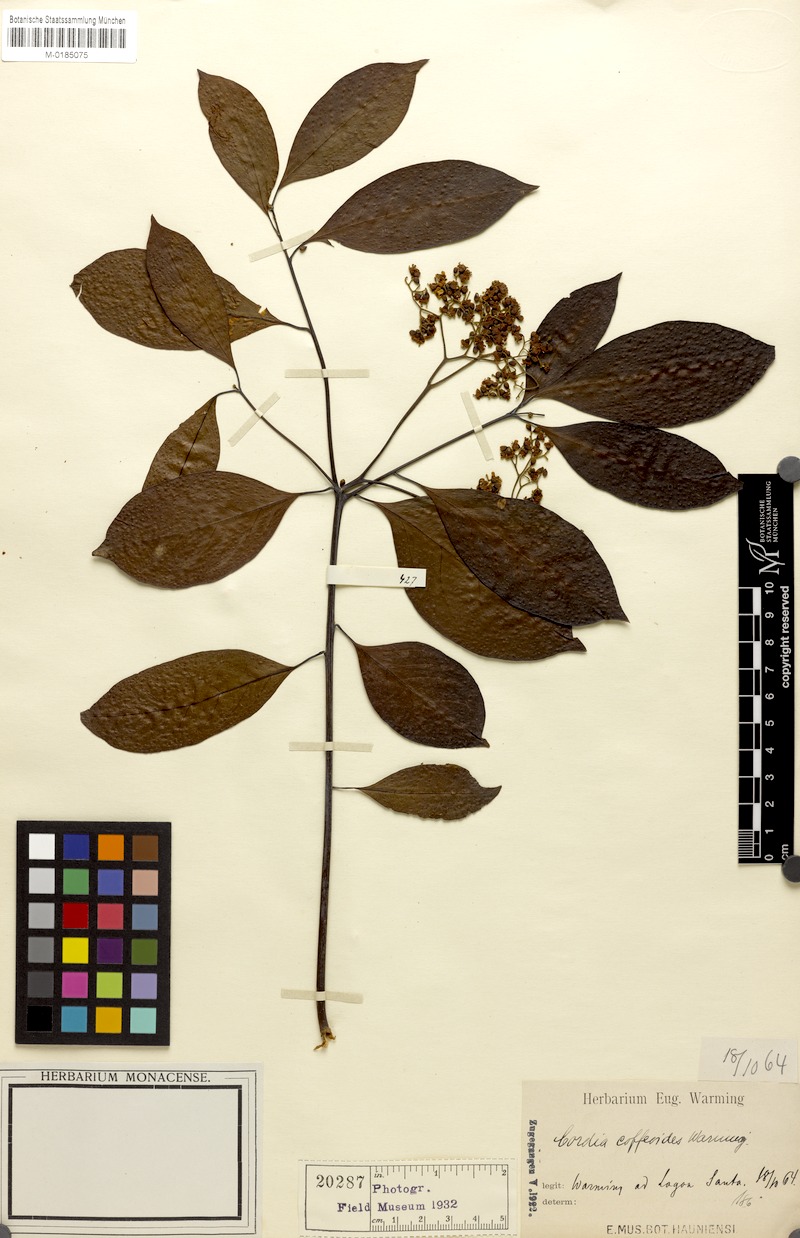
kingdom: Plantae
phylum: Tracheophyta
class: Magnoliopsida
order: Boraginales
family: Cordiaceae
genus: Cordia
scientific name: Cordia ecalyculata
